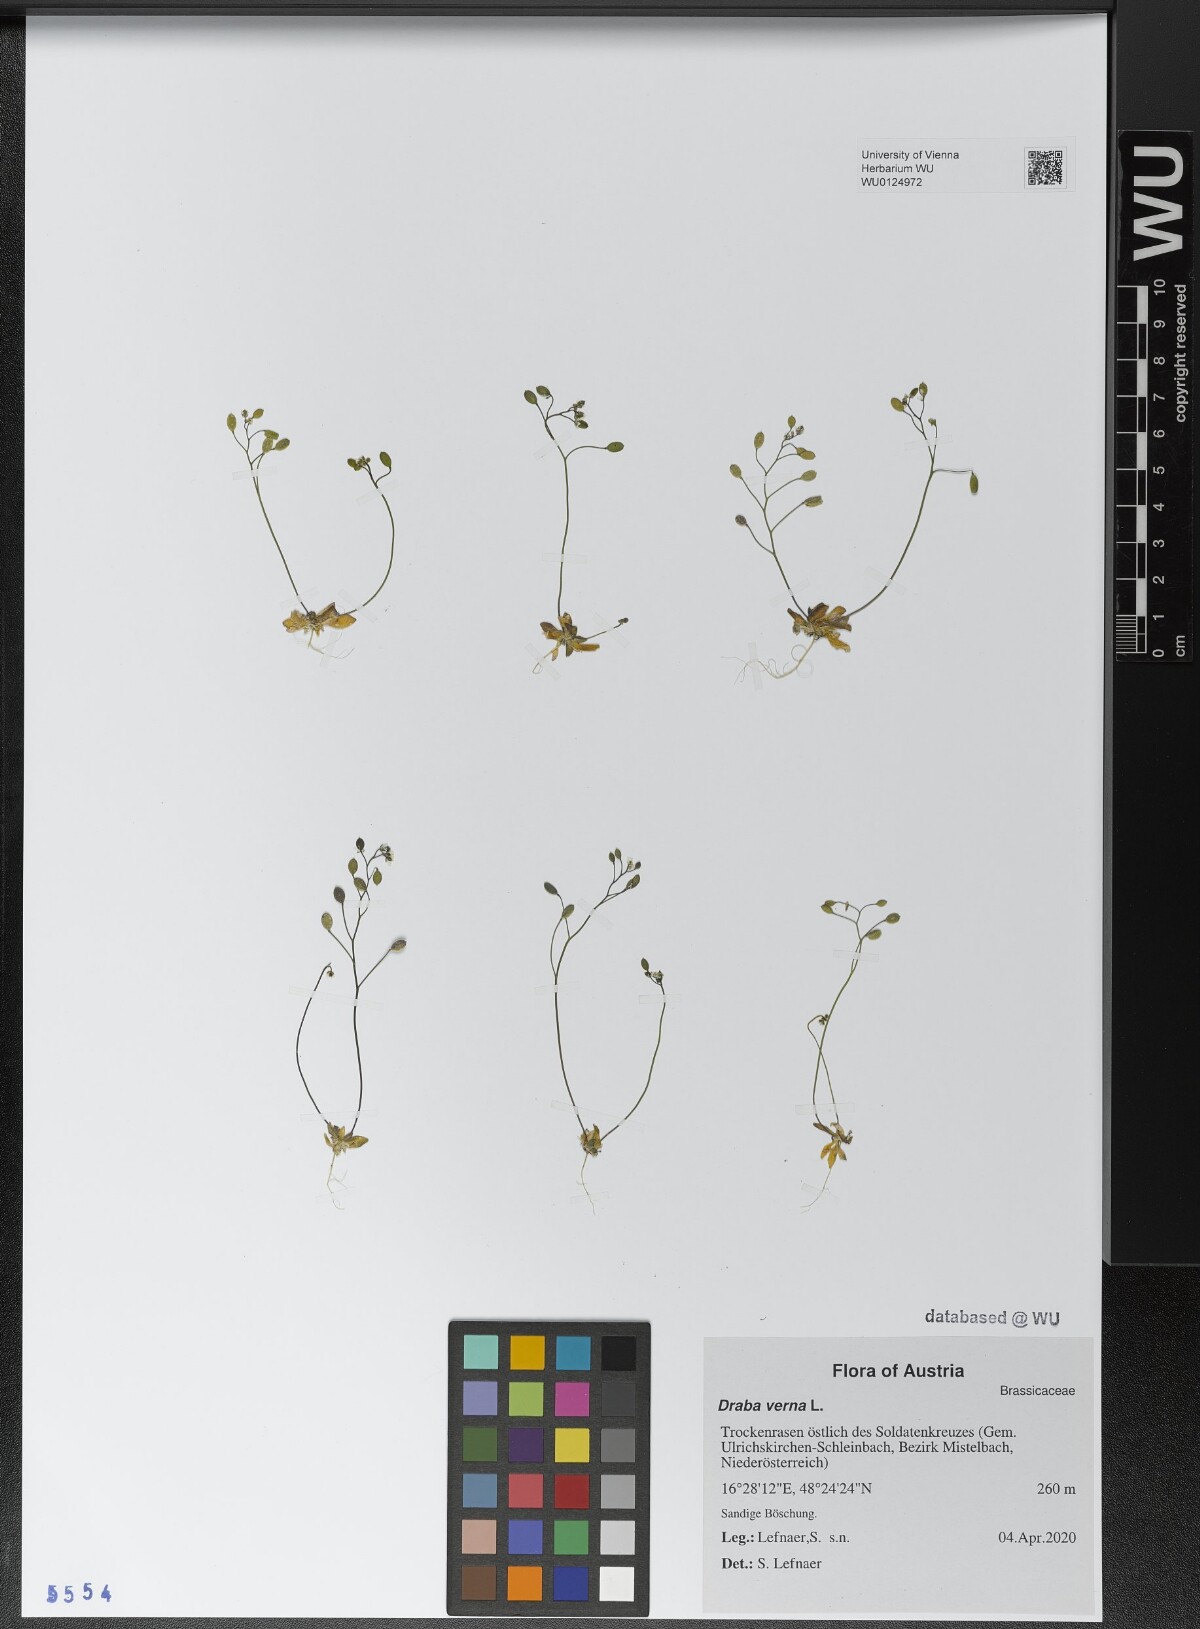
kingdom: Plantae
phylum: Tracheophyta
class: Magnoliopsida
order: Brassicales
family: Brassicaceae
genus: Draba
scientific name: Draba verna
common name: Spring draba
